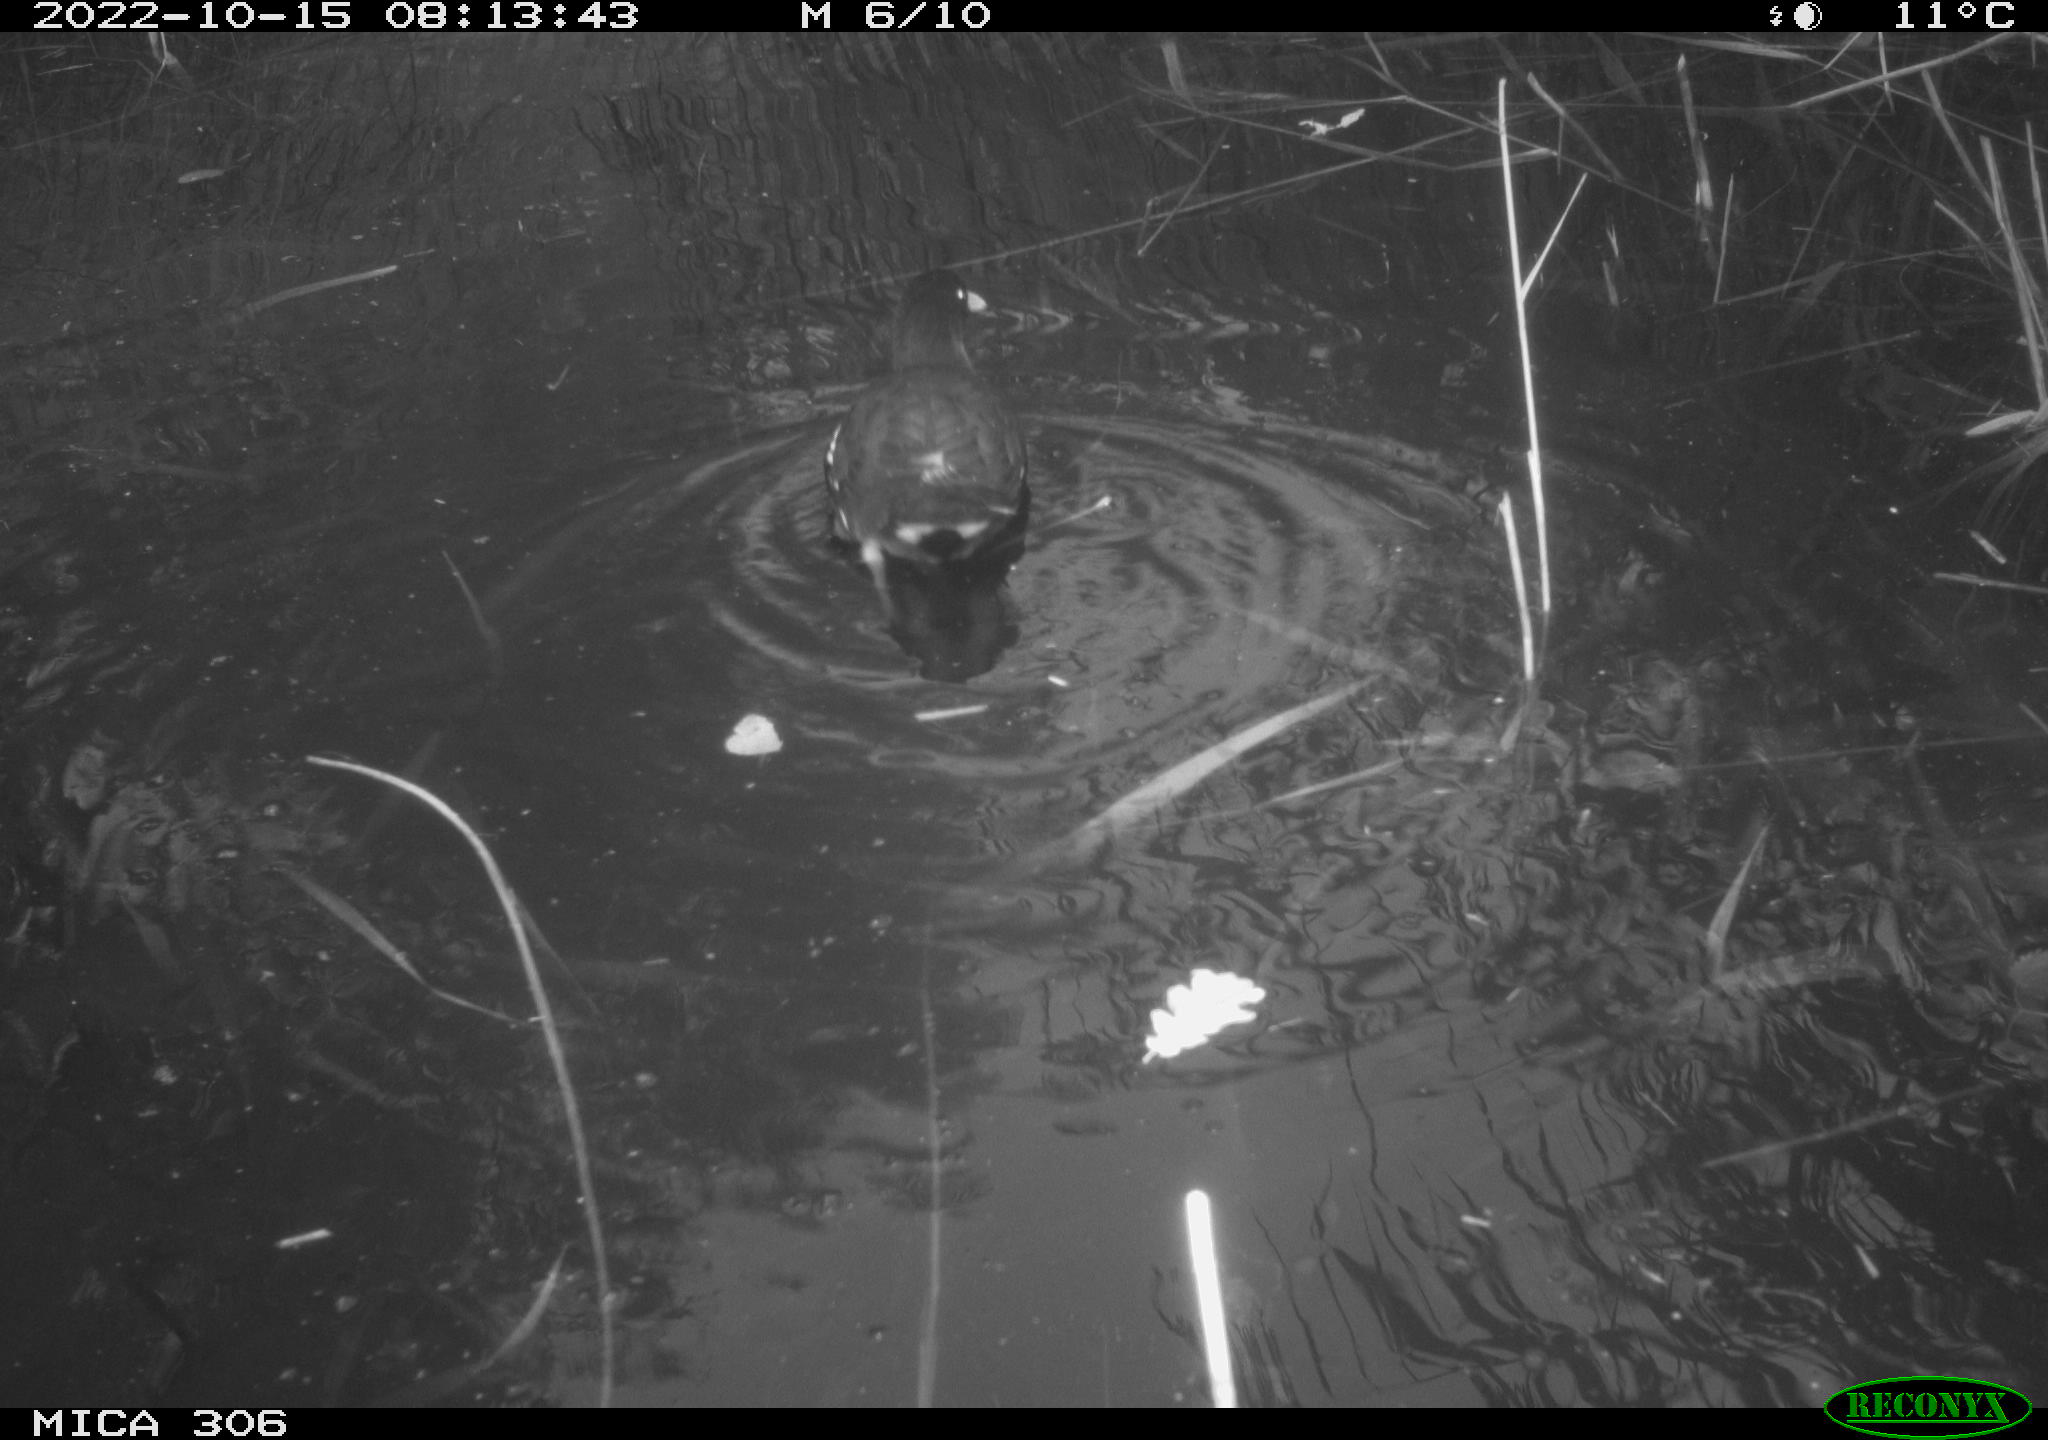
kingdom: Animalia
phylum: Chordata
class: Aves
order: Gruiformes
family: Rallidae
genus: Gallinula
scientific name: Gallinula chloropus
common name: Common moorhen
